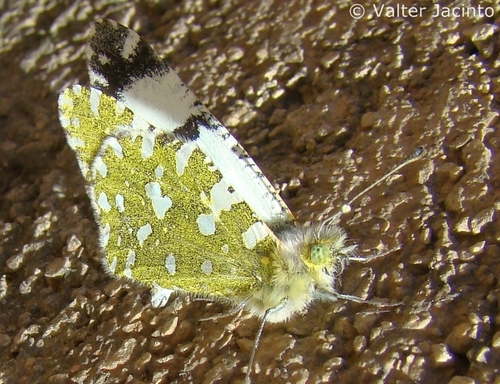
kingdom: Animalia
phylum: Arthropoda
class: Insecta
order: Lepidoptera
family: Pieridae
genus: Euchloe
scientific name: Euchloe crameri
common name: Western dappled white
